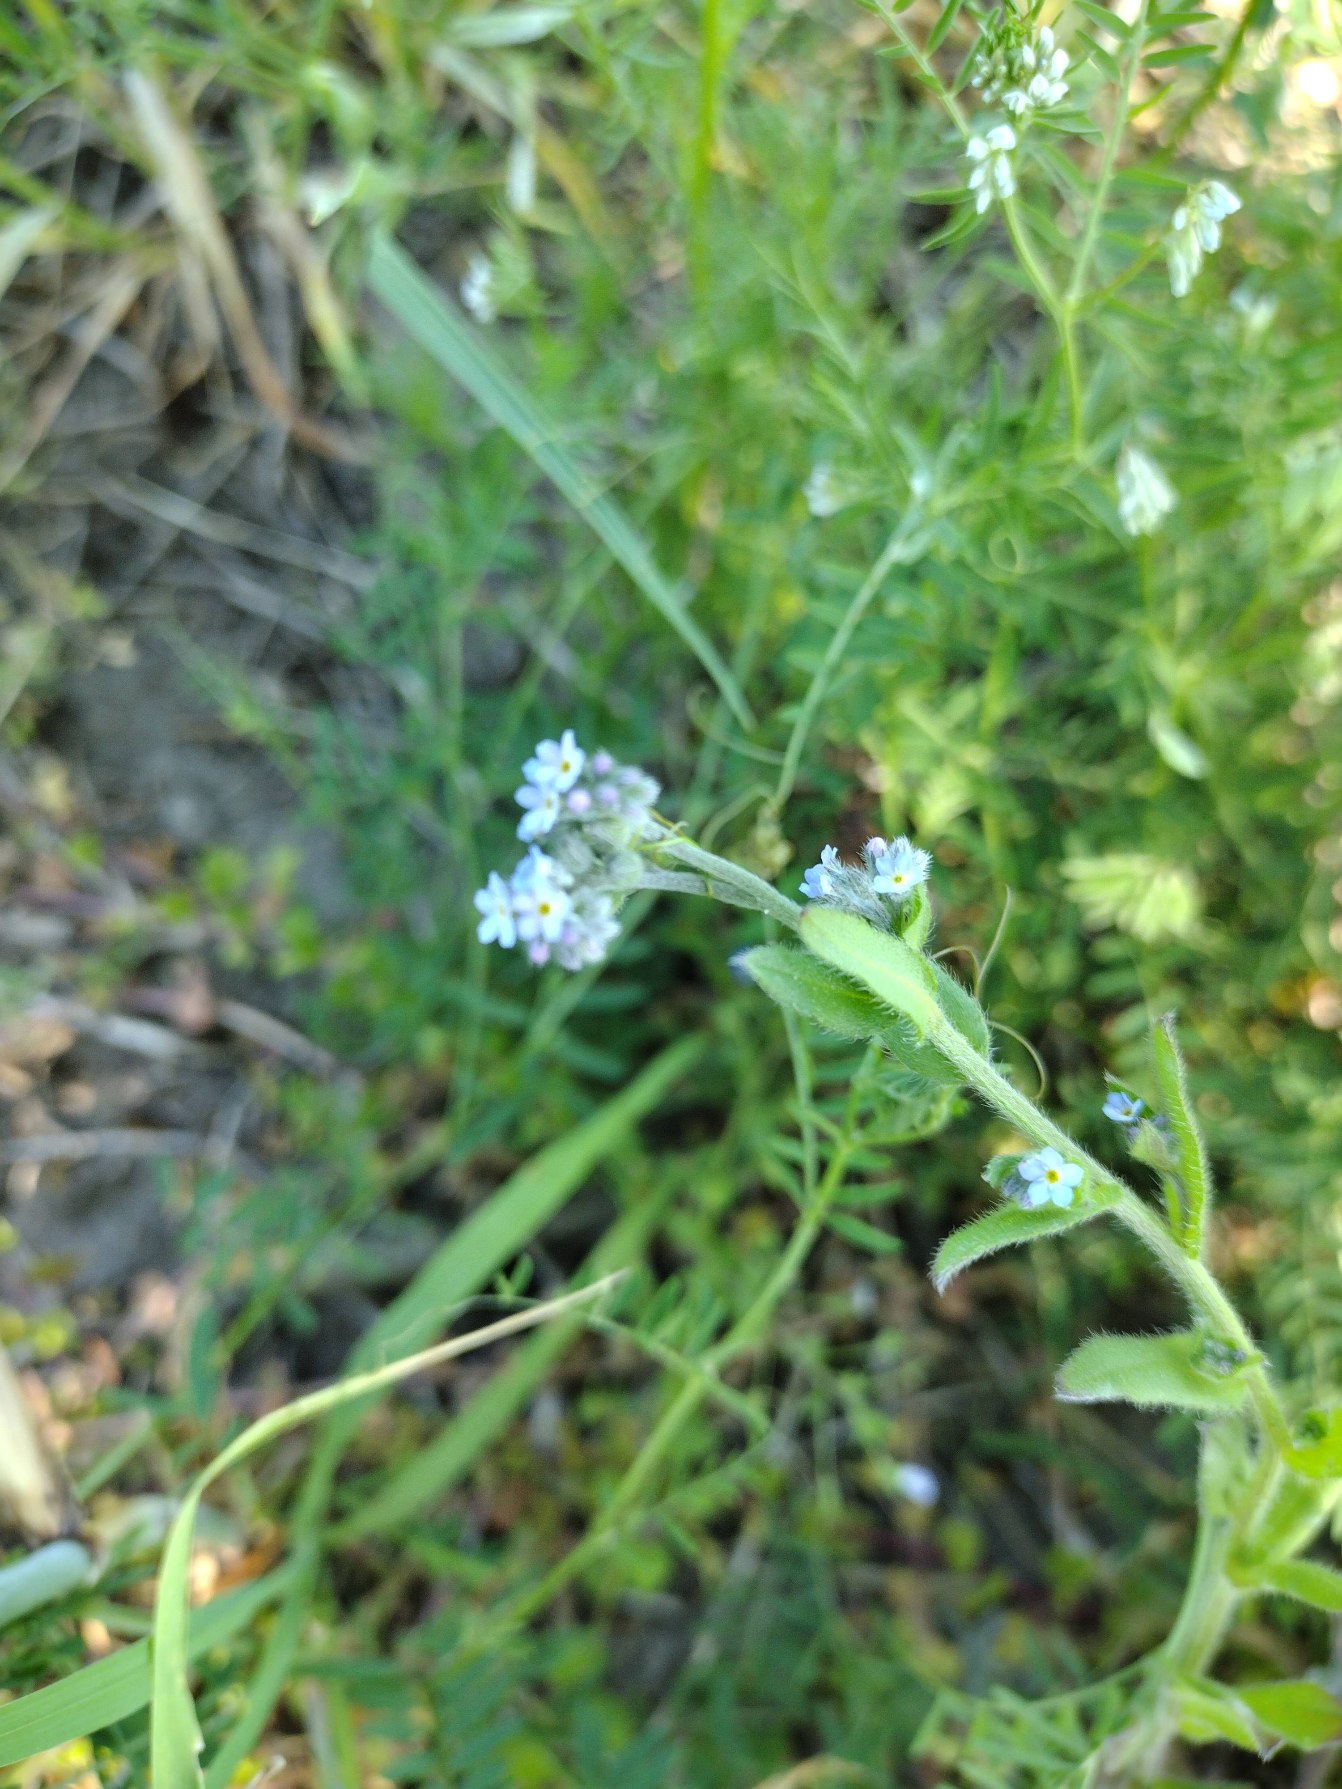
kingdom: Plantae
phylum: Tracheophyta
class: Magnoliopsida
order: Boraginales
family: Boraginaceae
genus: Myosotis
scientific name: Myosotis arvensis
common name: Mark-forglemmigej
